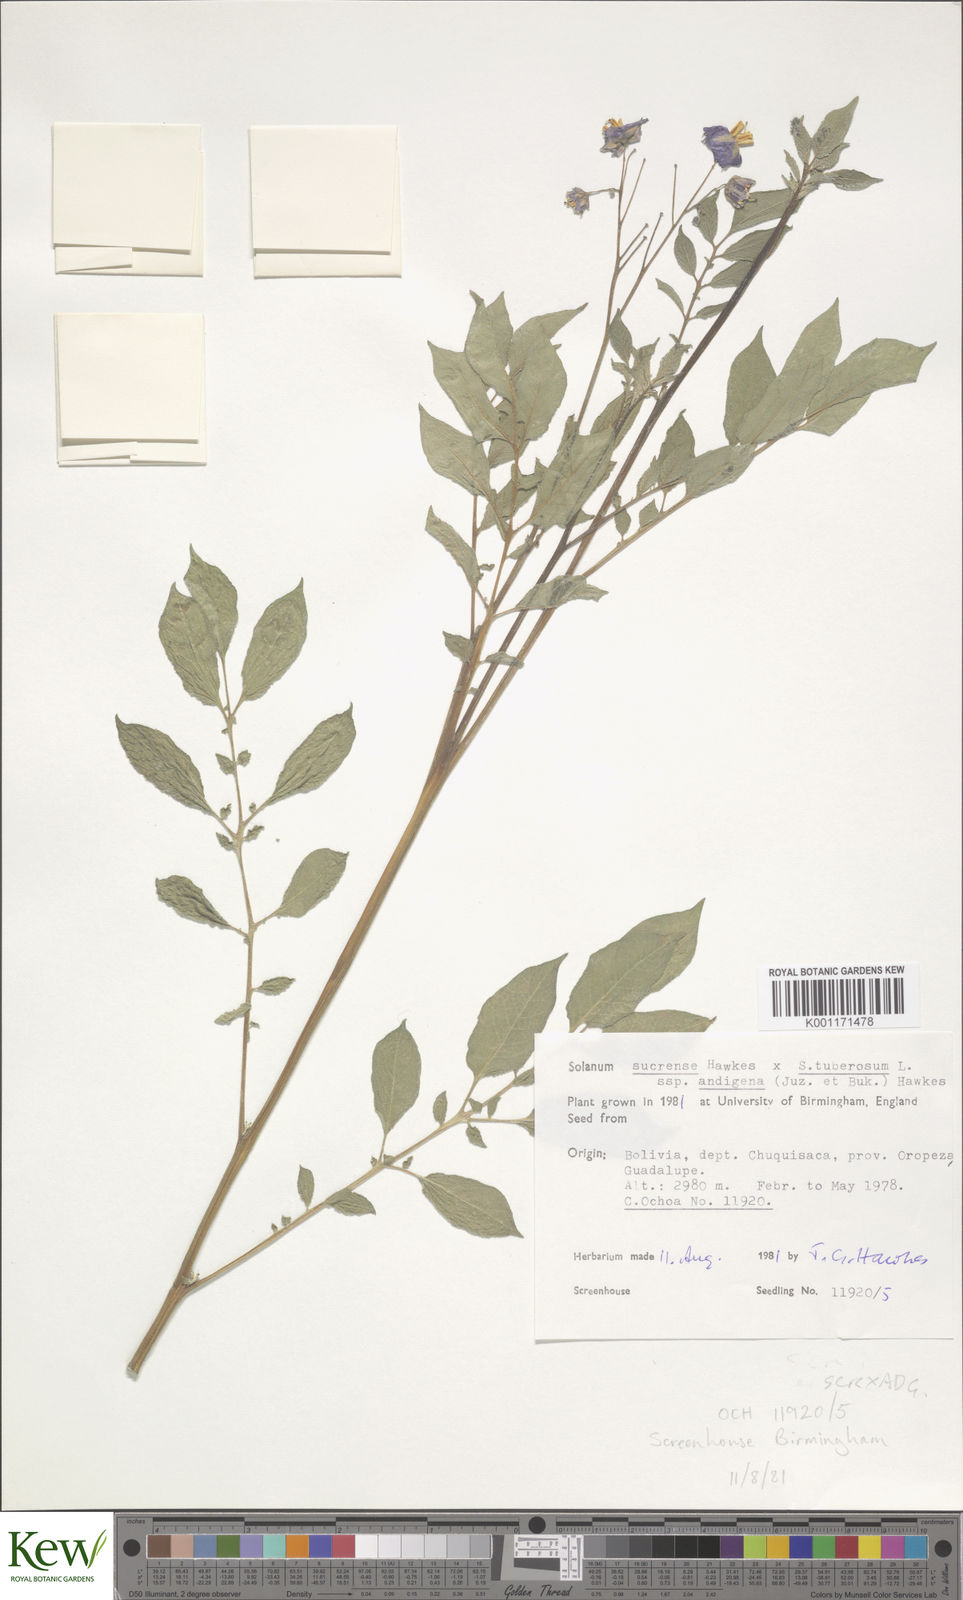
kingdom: Plantae
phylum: Tracheophyta
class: Magnoliopsida
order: Solanales
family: Solanaceae
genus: Solanum
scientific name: Solanum tuberosum
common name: Potato
